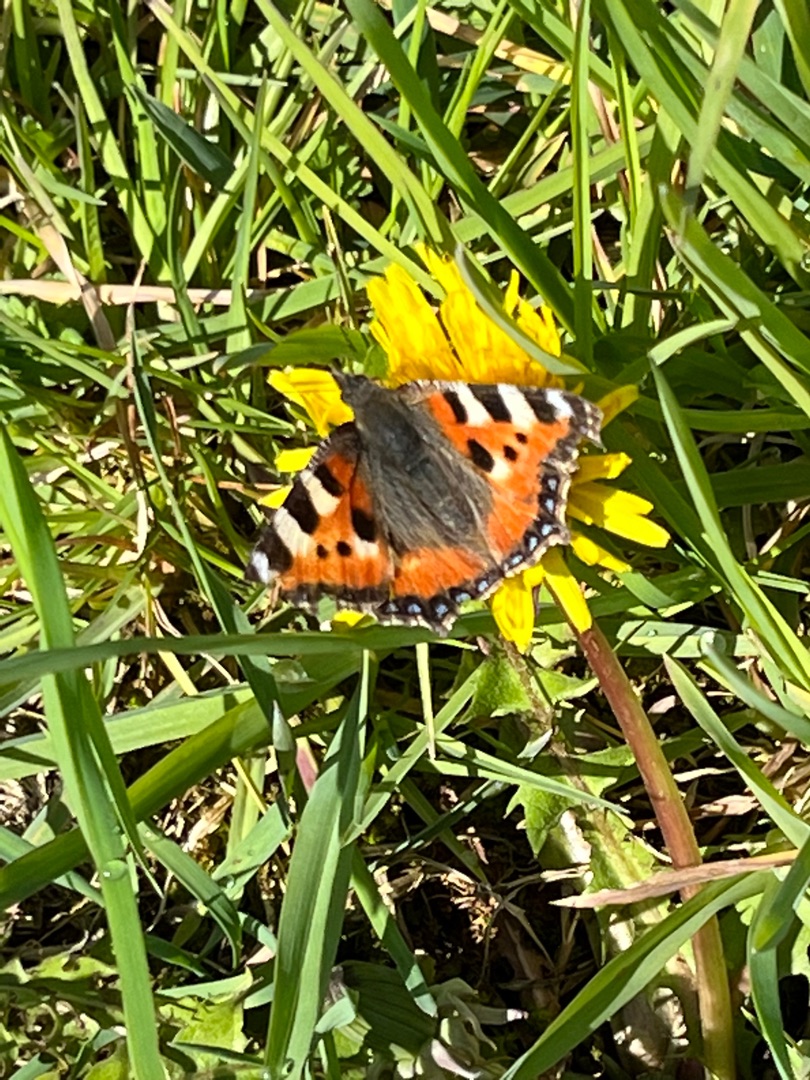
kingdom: Animalia
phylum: Arthropoda
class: Insecta
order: Lepidoptera
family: Nymphalidae
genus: Aglais
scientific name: Aglais urticae
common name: Nældens takvinge
